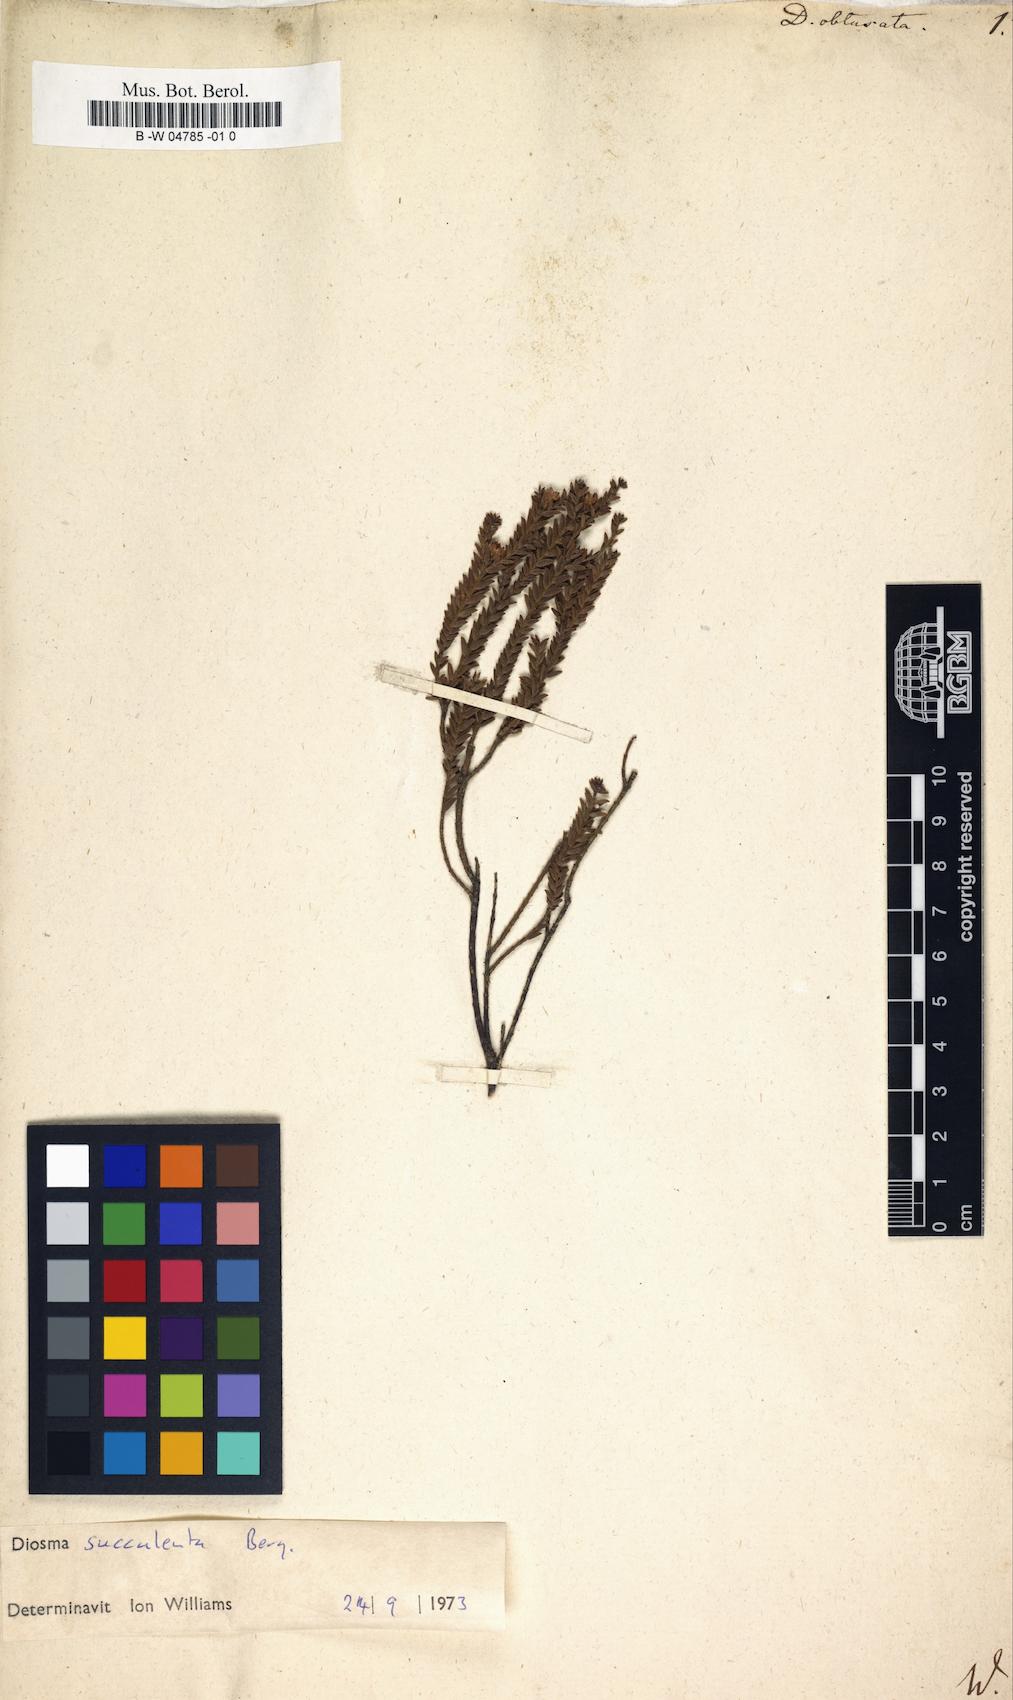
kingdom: Plantae
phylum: Tracheophyta
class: Magnoliopsida
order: Sapindales
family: Rutaceae
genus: Acmadenia
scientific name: Acmadenia obtusata
